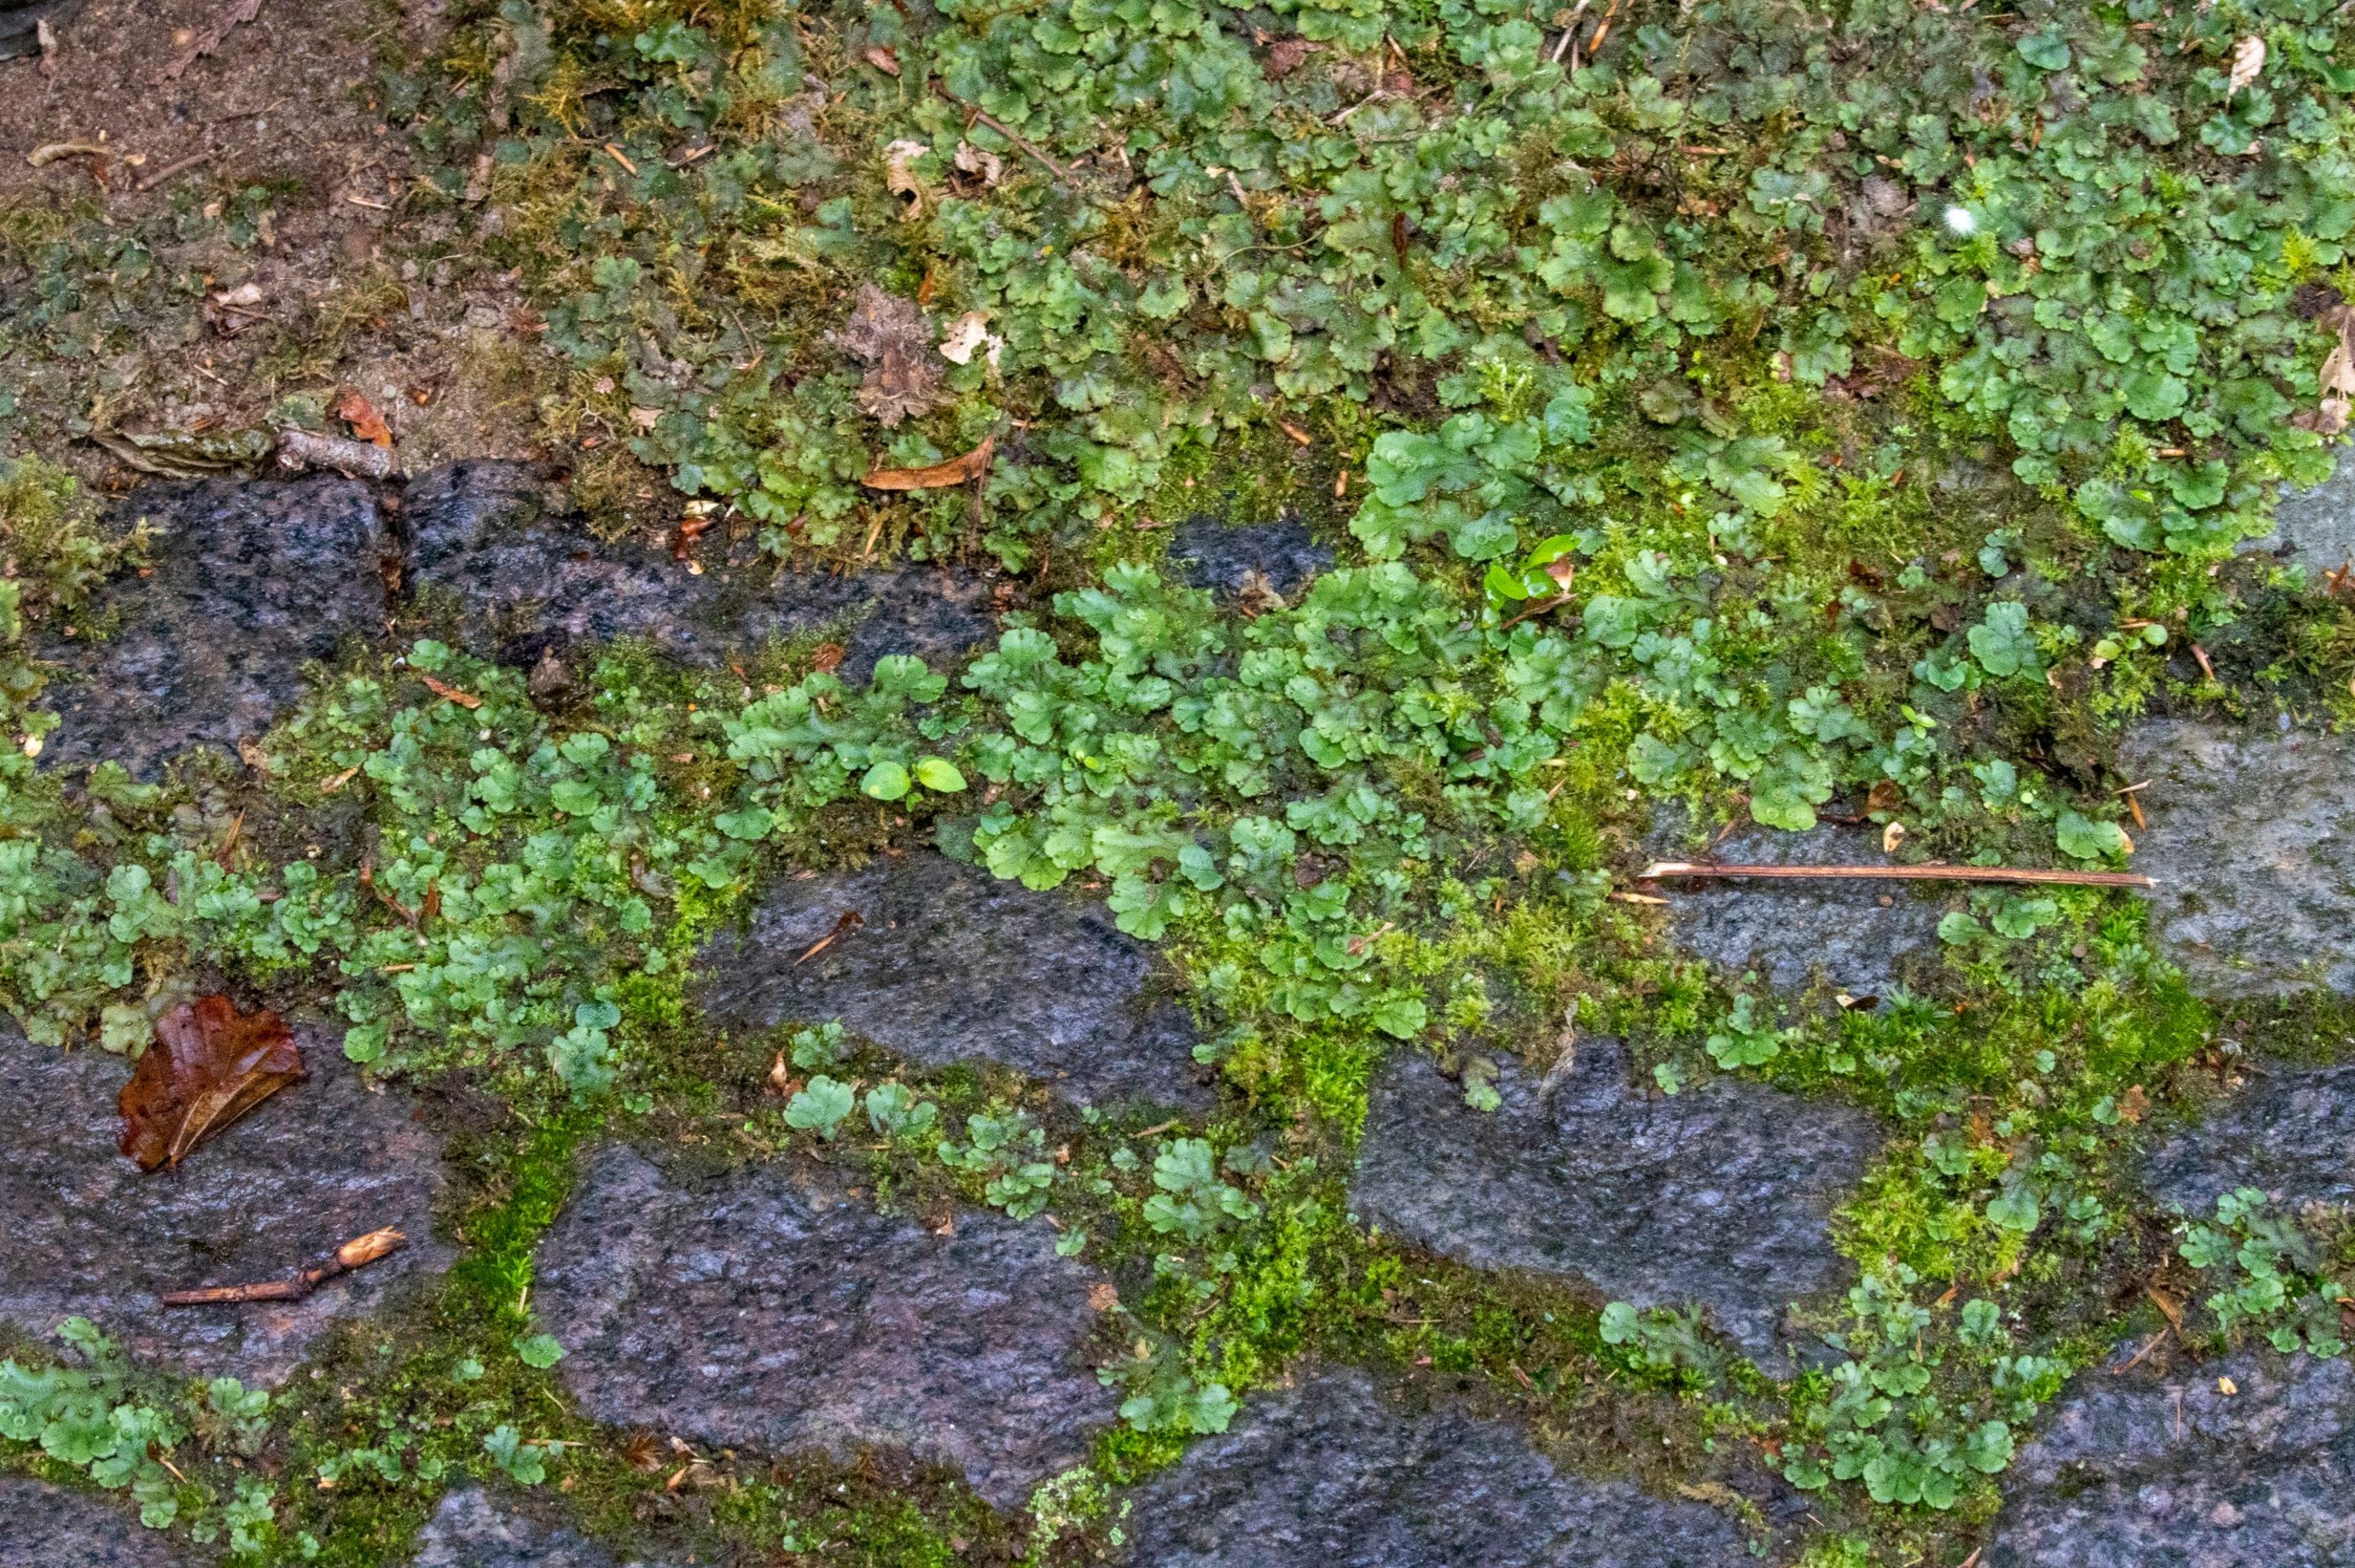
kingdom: Plantae
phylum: Marchantiophyta
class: Marchantiopsida
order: Marchantiales
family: Marchantiaceae
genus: Marchantia
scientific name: Marchantia polymorpha
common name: Almindelig lungemos (underart)
